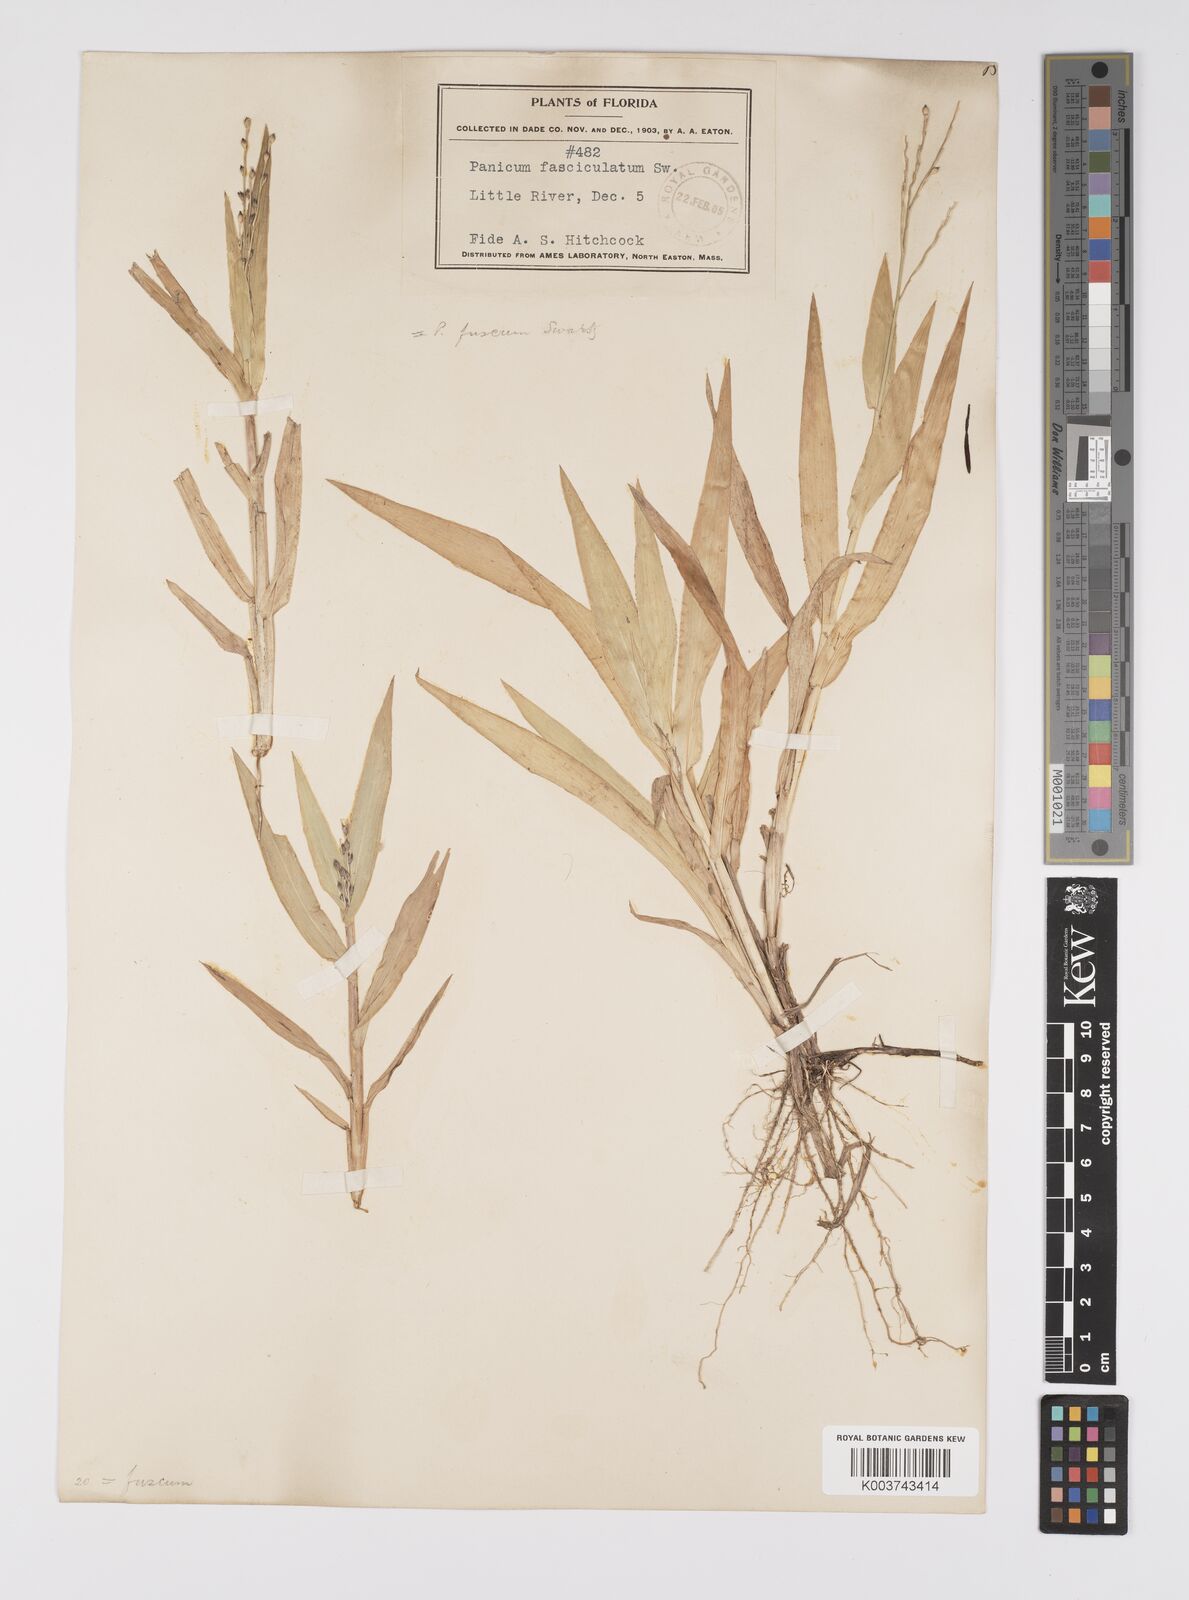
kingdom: Plantae
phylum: Tracheophyta
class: Liliopsida
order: Poales
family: Poaceae
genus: Urochloa
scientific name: Urochloa fusca
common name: Browntop signal grass
